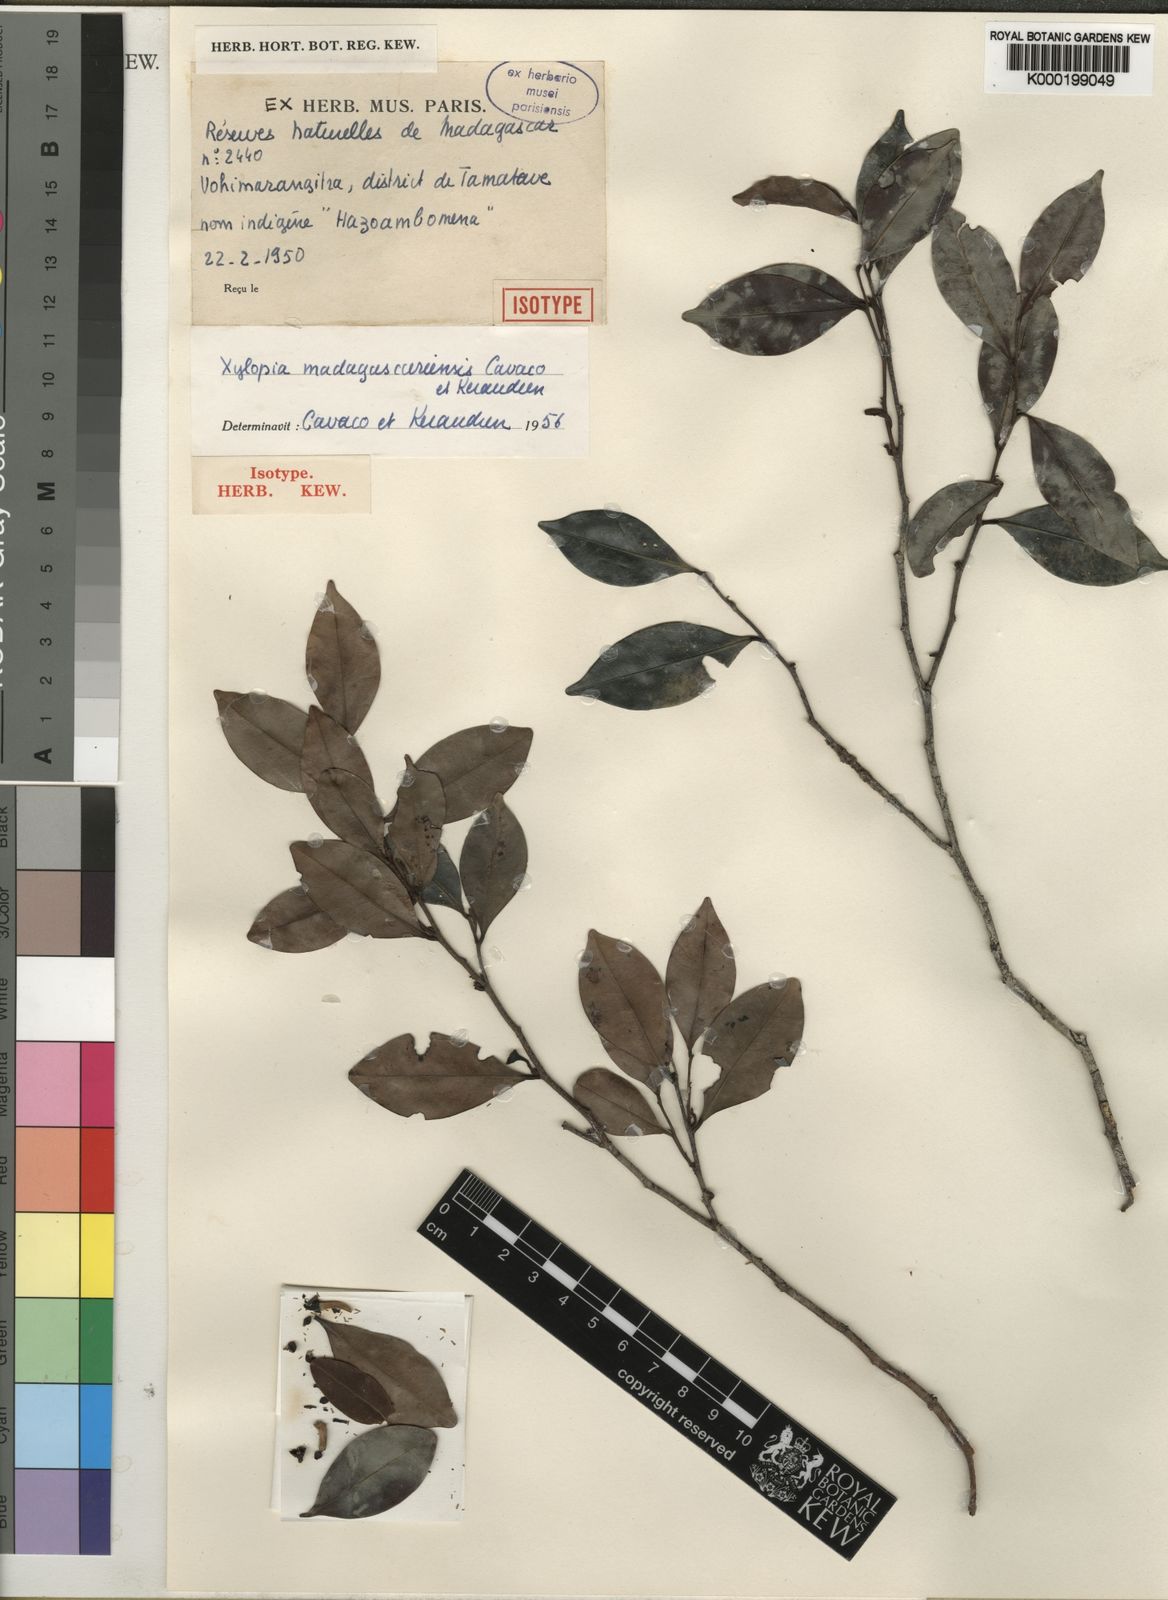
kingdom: Plantae
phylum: Tracheophyta
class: Magnoliopsida
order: Magnoliales
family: Annonaceae
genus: Xylopia
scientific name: Xylopia madagascariensis
